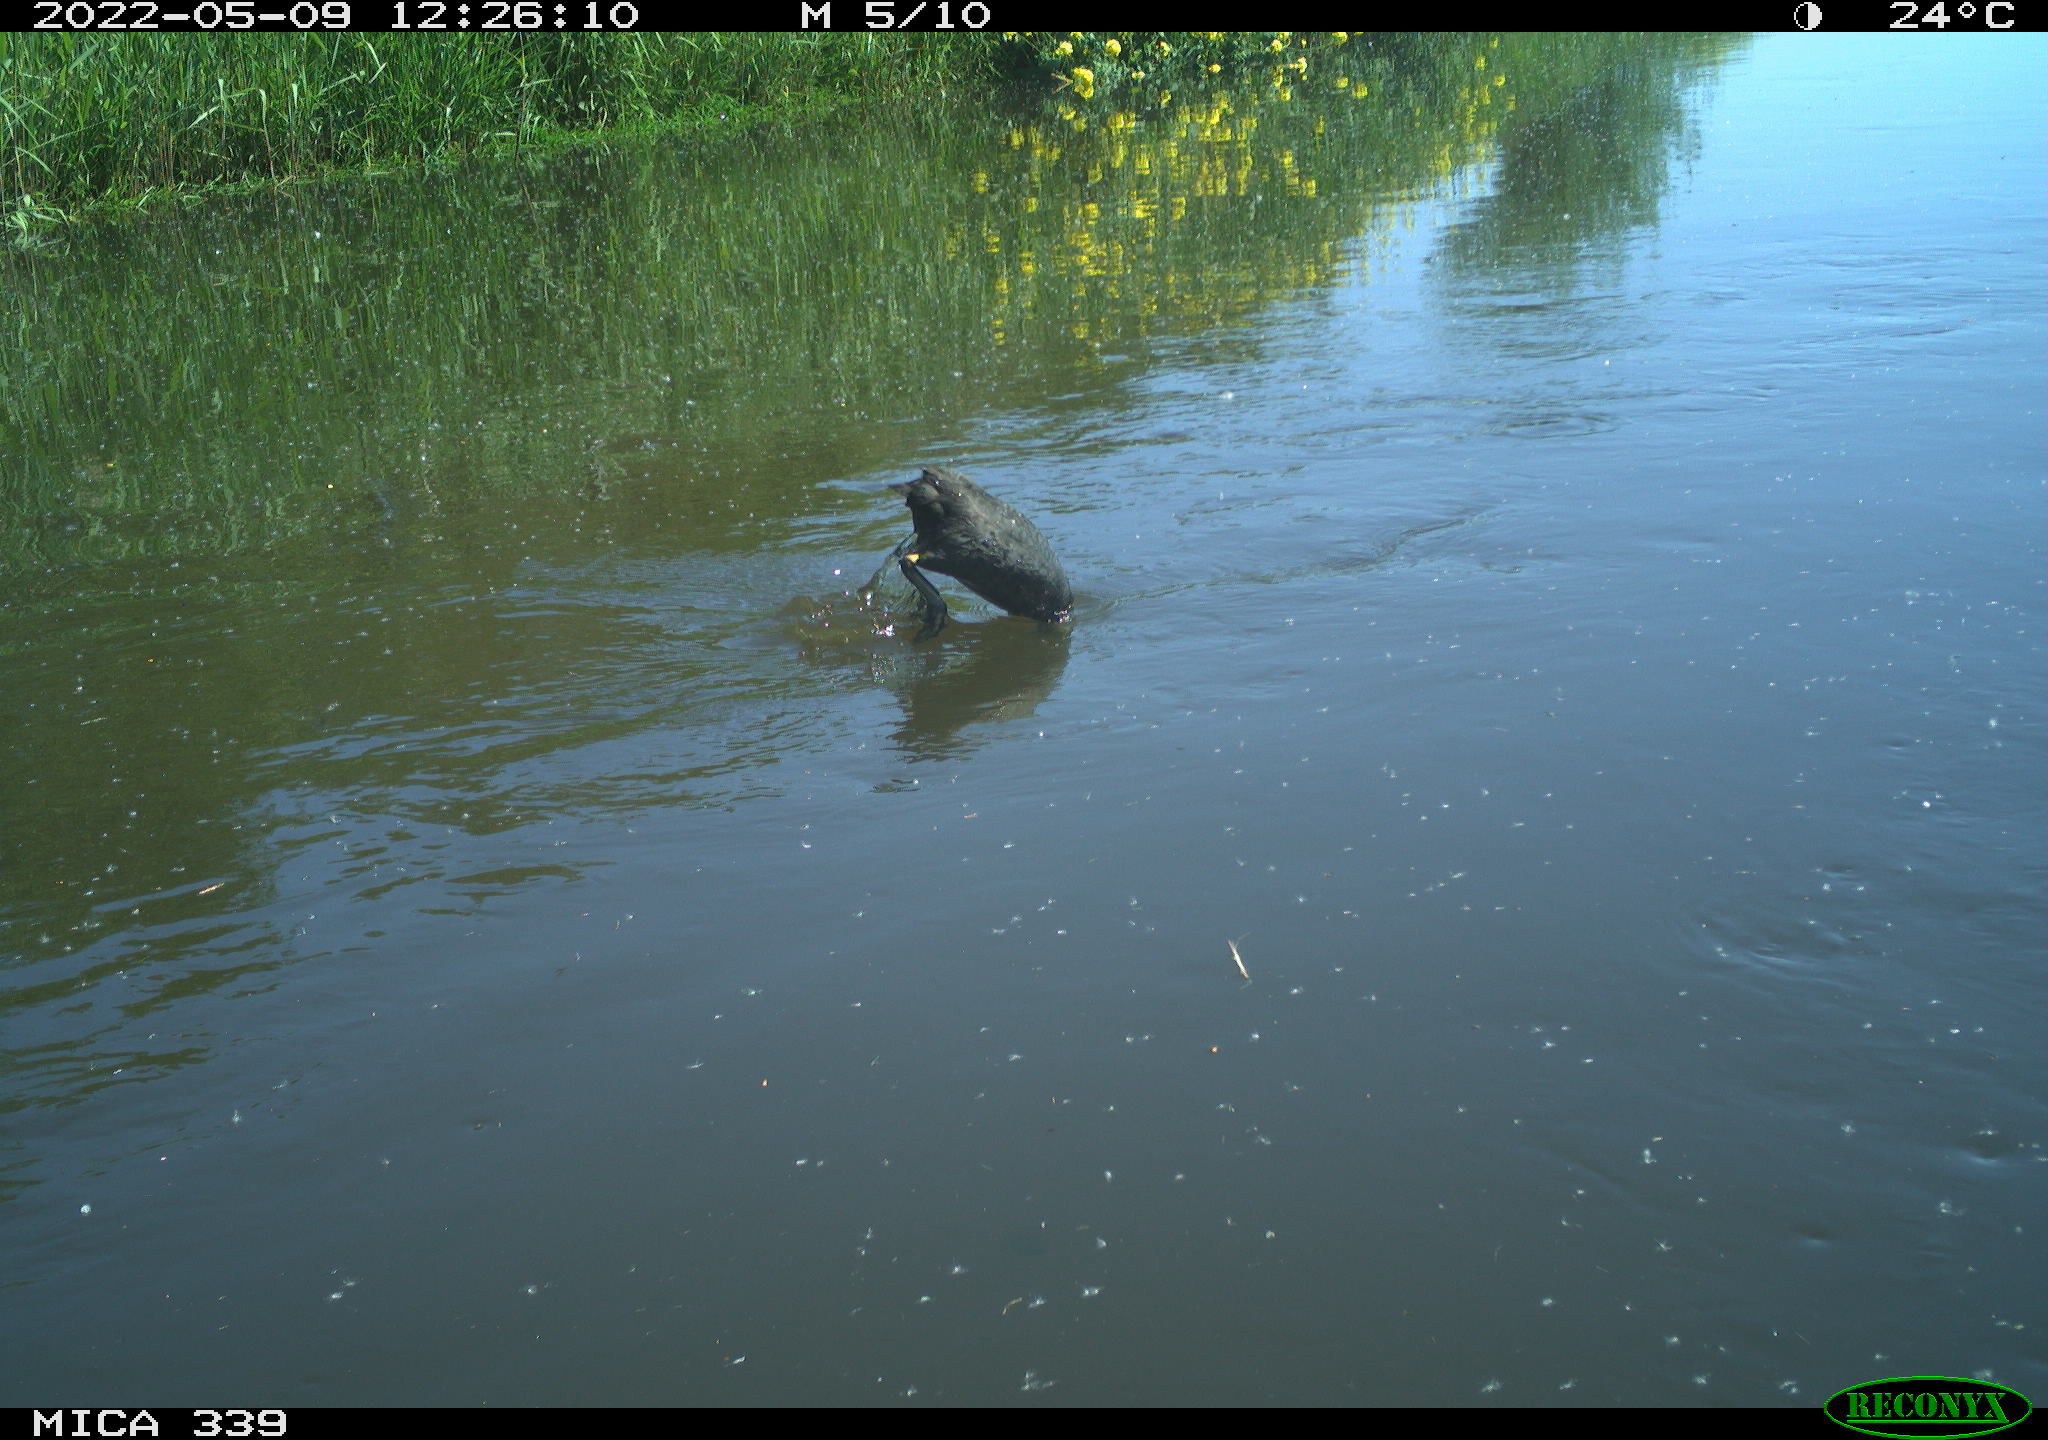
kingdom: Animalia
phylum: Chordata
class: Aves
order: Gruiformes
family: Rallidae
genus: Fulica
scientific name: Fulica atra
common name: Eurasian coot
